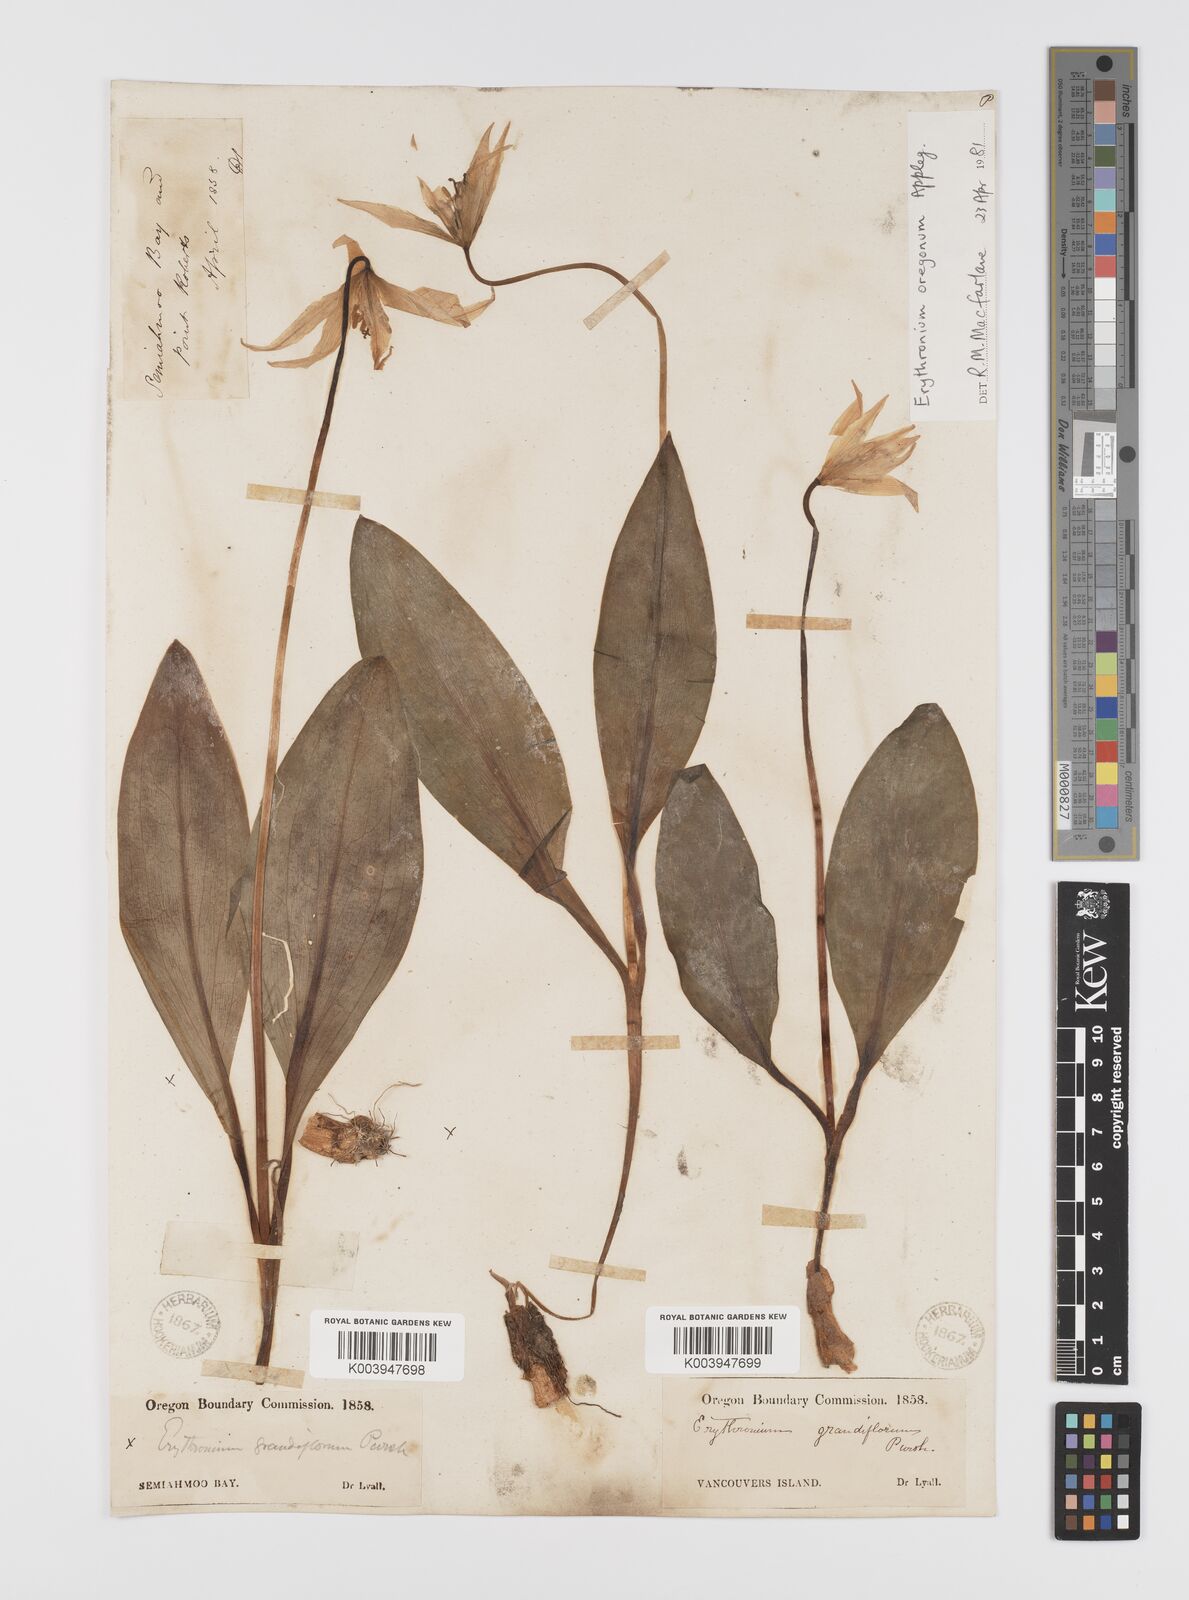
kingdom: Plantae
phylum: Tracheophyta
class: Liliopsida
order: Liliales
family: Liliaceae
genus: Erythronium
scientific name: Erythronium oregonum
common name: Giant adder's-tongue
